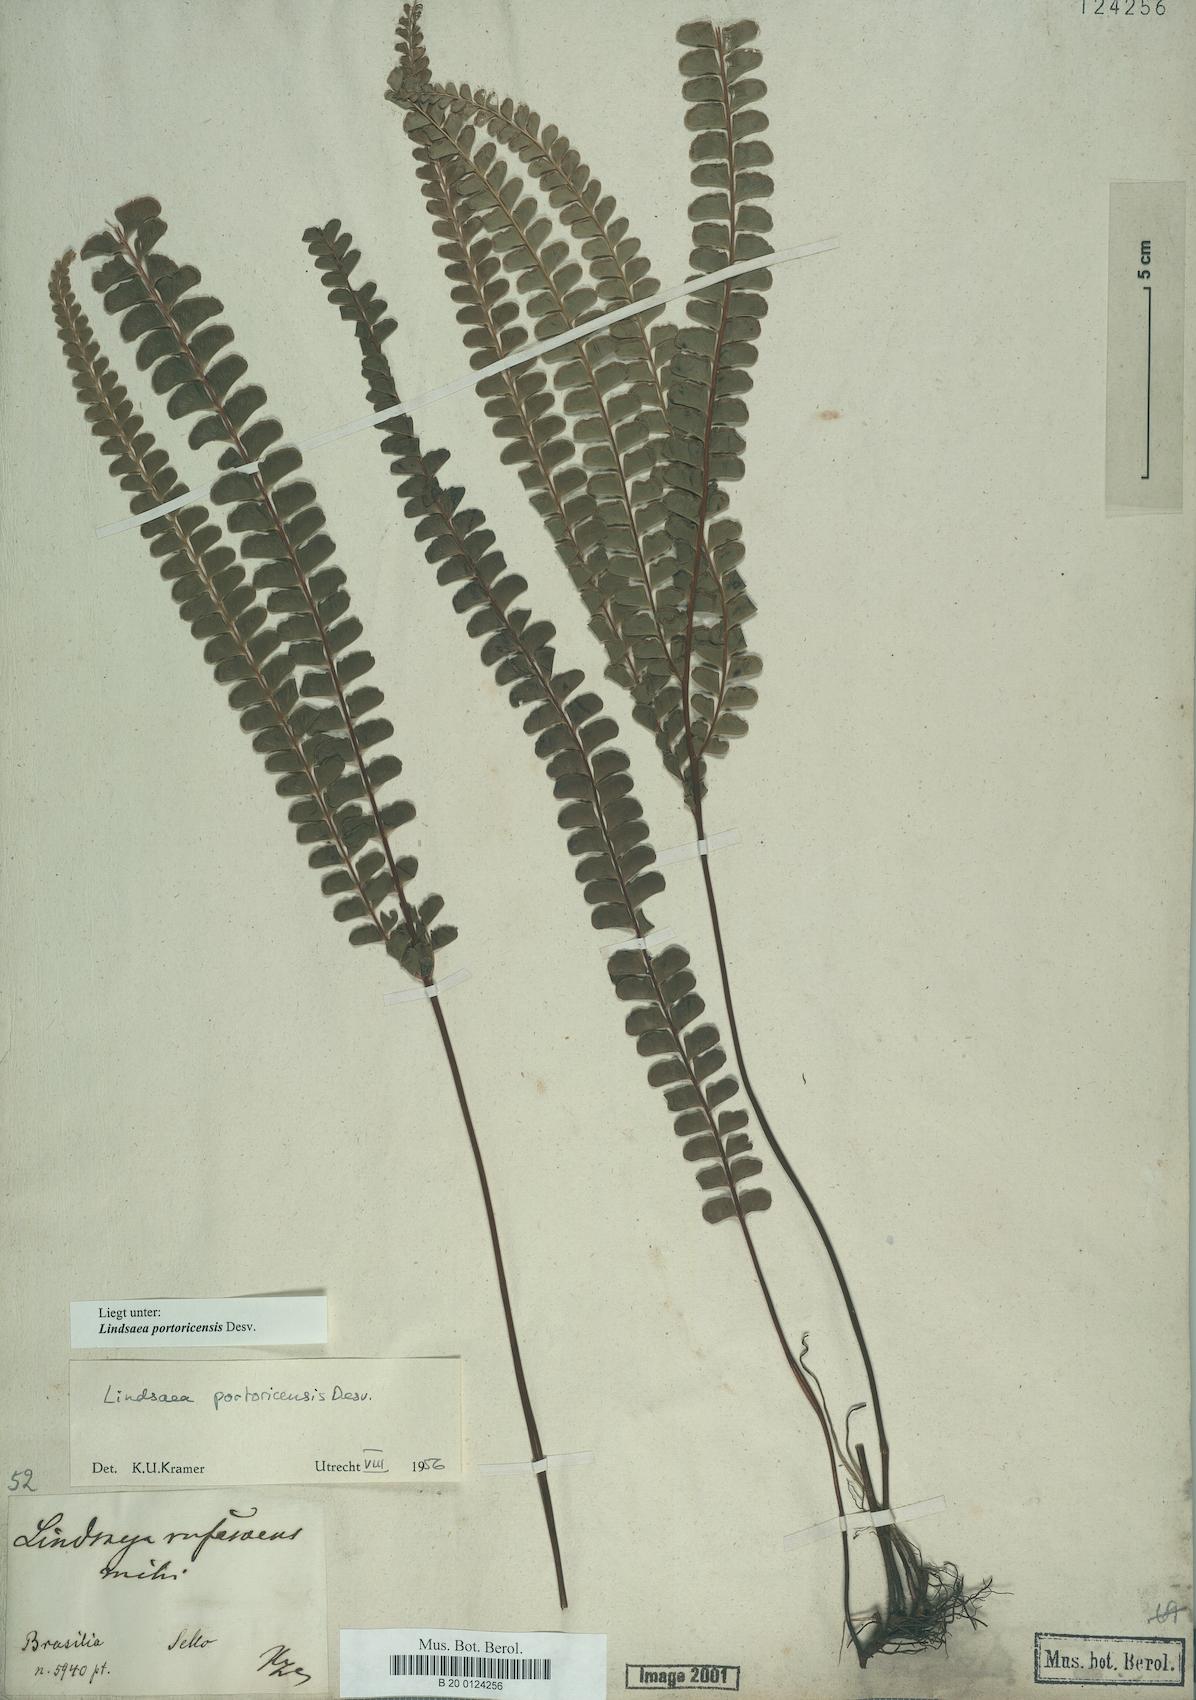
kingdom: Plantae
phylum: Tracheophyta
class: Polypodiopsida
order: Polypodiales
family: Lindsaeaceae
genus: Lindsaea
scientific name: Lindsaea portoricensis
